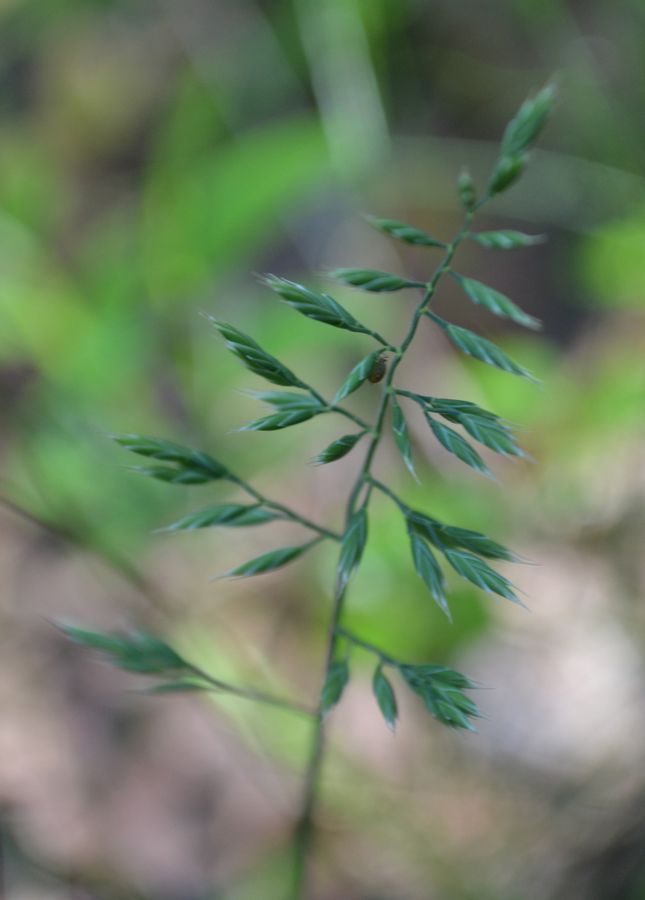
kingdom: Plantae
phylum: Tracheophyta
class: Liliopsida
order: Poales
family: Poaceae
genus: Festuca
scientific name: Festuca rubra
